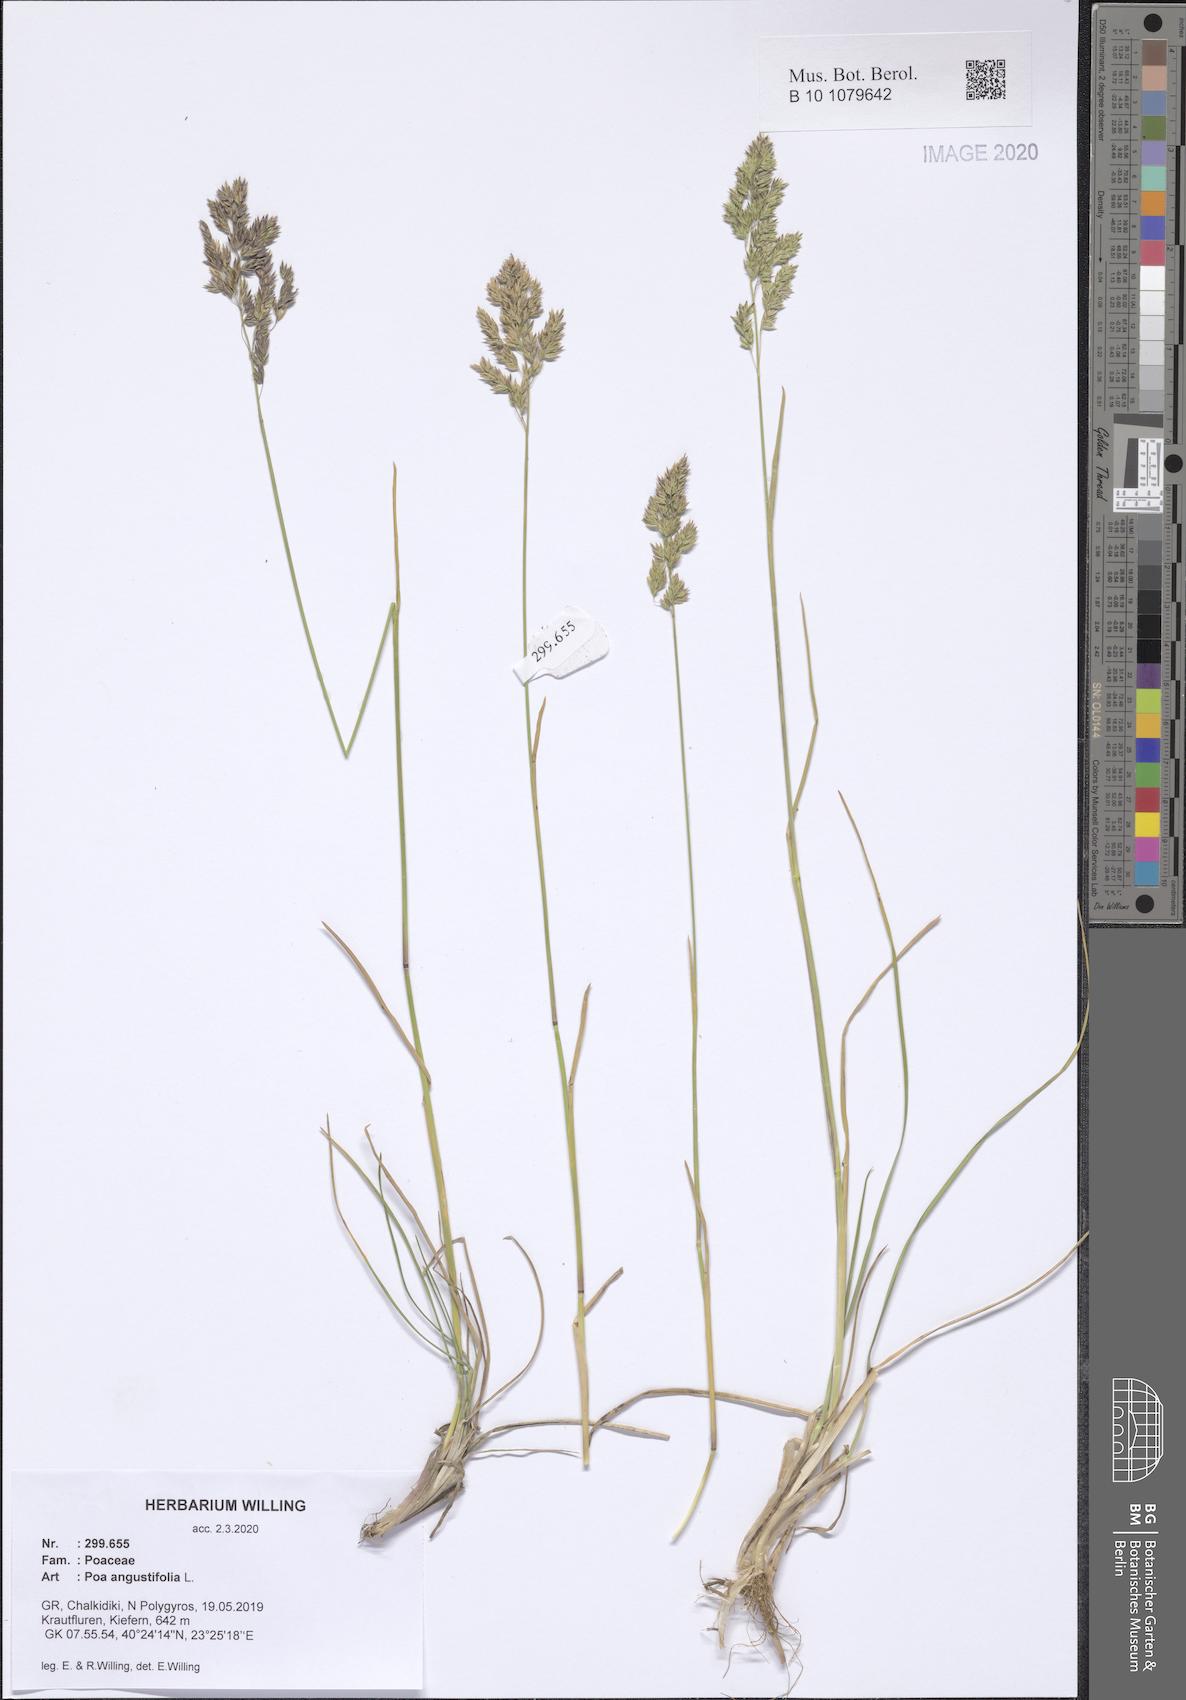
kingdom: Plantae
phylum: Tracheophyta
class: Liliopsida
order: Poales
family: Poaceae
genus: Poa
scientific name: Poa angustifolia
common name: Narrow-leaved meadow-grass
